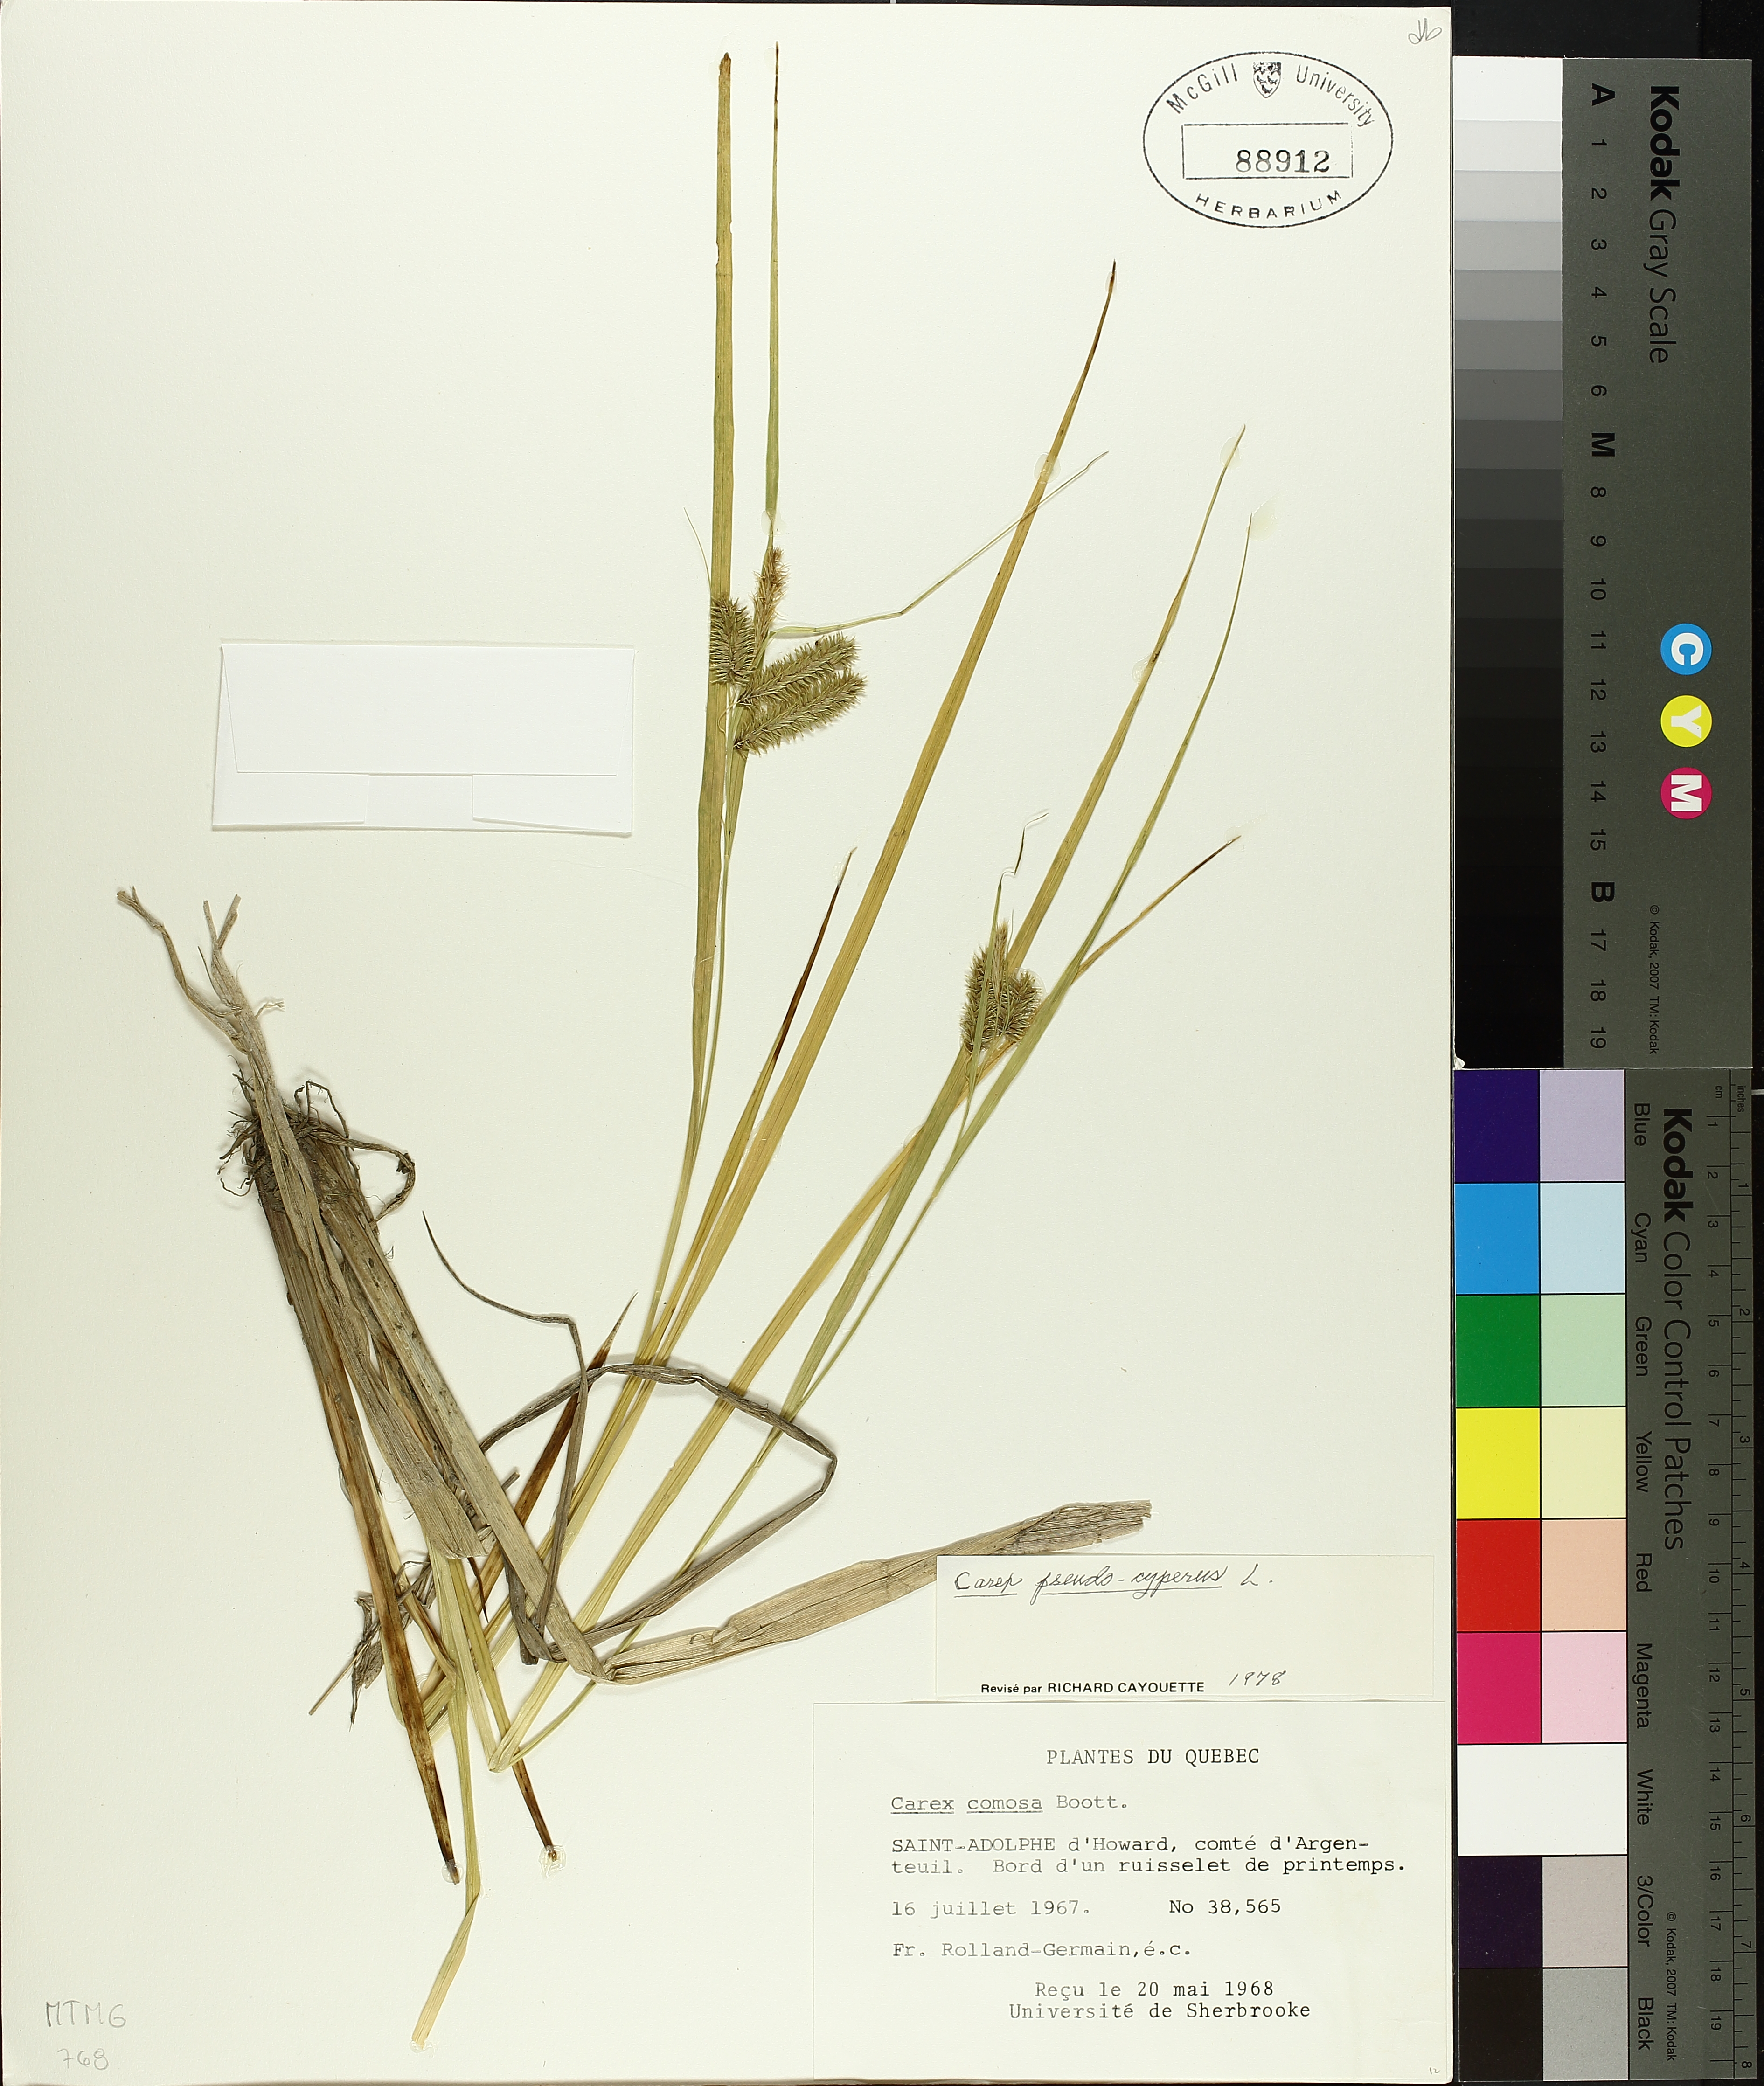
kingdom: Plantae
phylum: Tracheophyta
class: Liliopsida
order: Poales
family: Cyperaceae
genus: Carex
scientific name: Carex pseudocyperus
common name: Cyperus sedge
